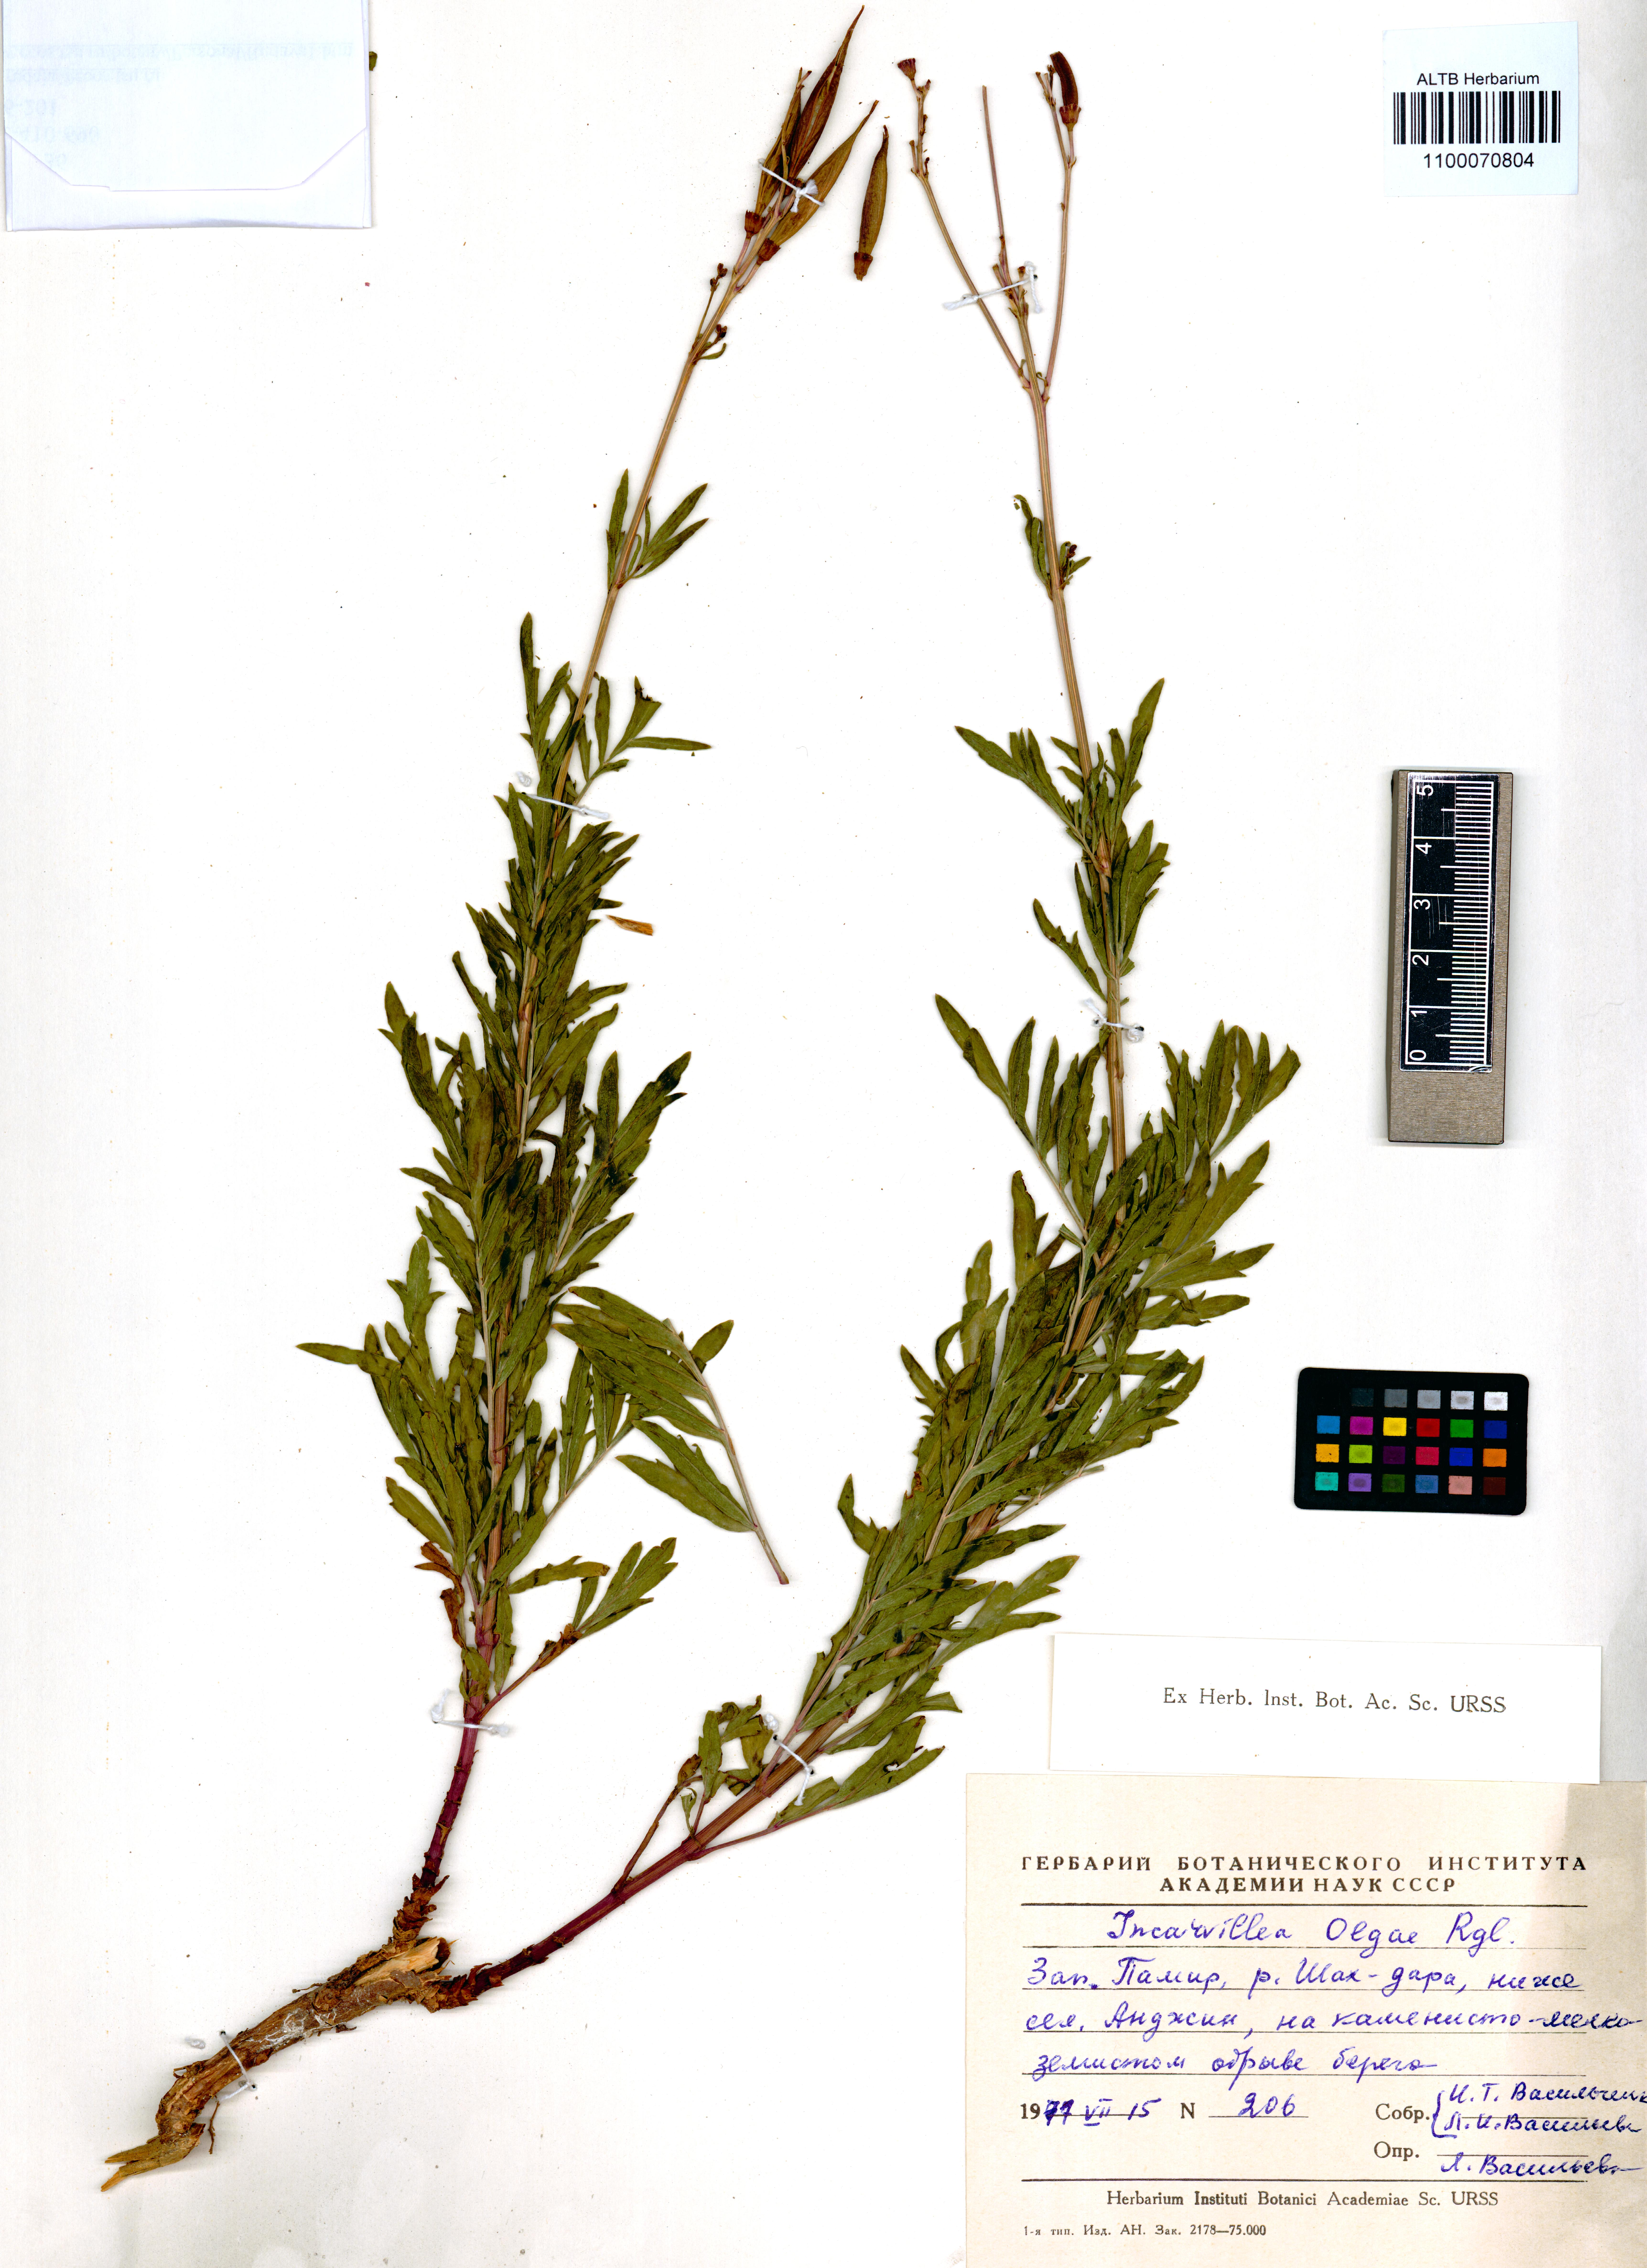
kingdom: Plantae
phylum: Tracheophyta
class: Magnoliopsida
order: Lamiales
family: Bignoniaceae
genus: Incarvillea
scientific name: Incarvillea olgae
